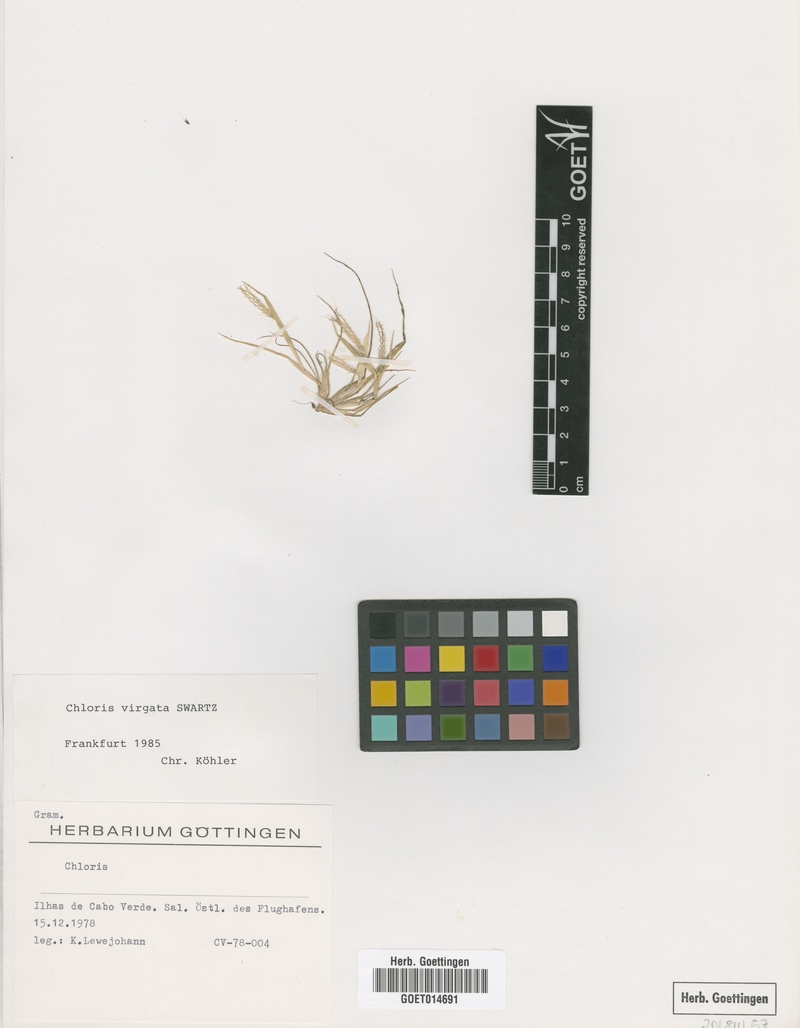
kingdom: Plantae
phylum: Tracheophyta
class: Liliopsida
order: Poales
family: Poaceae
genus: Chloris
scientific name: Chloris virgata
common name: Feathery rhodes-grass
